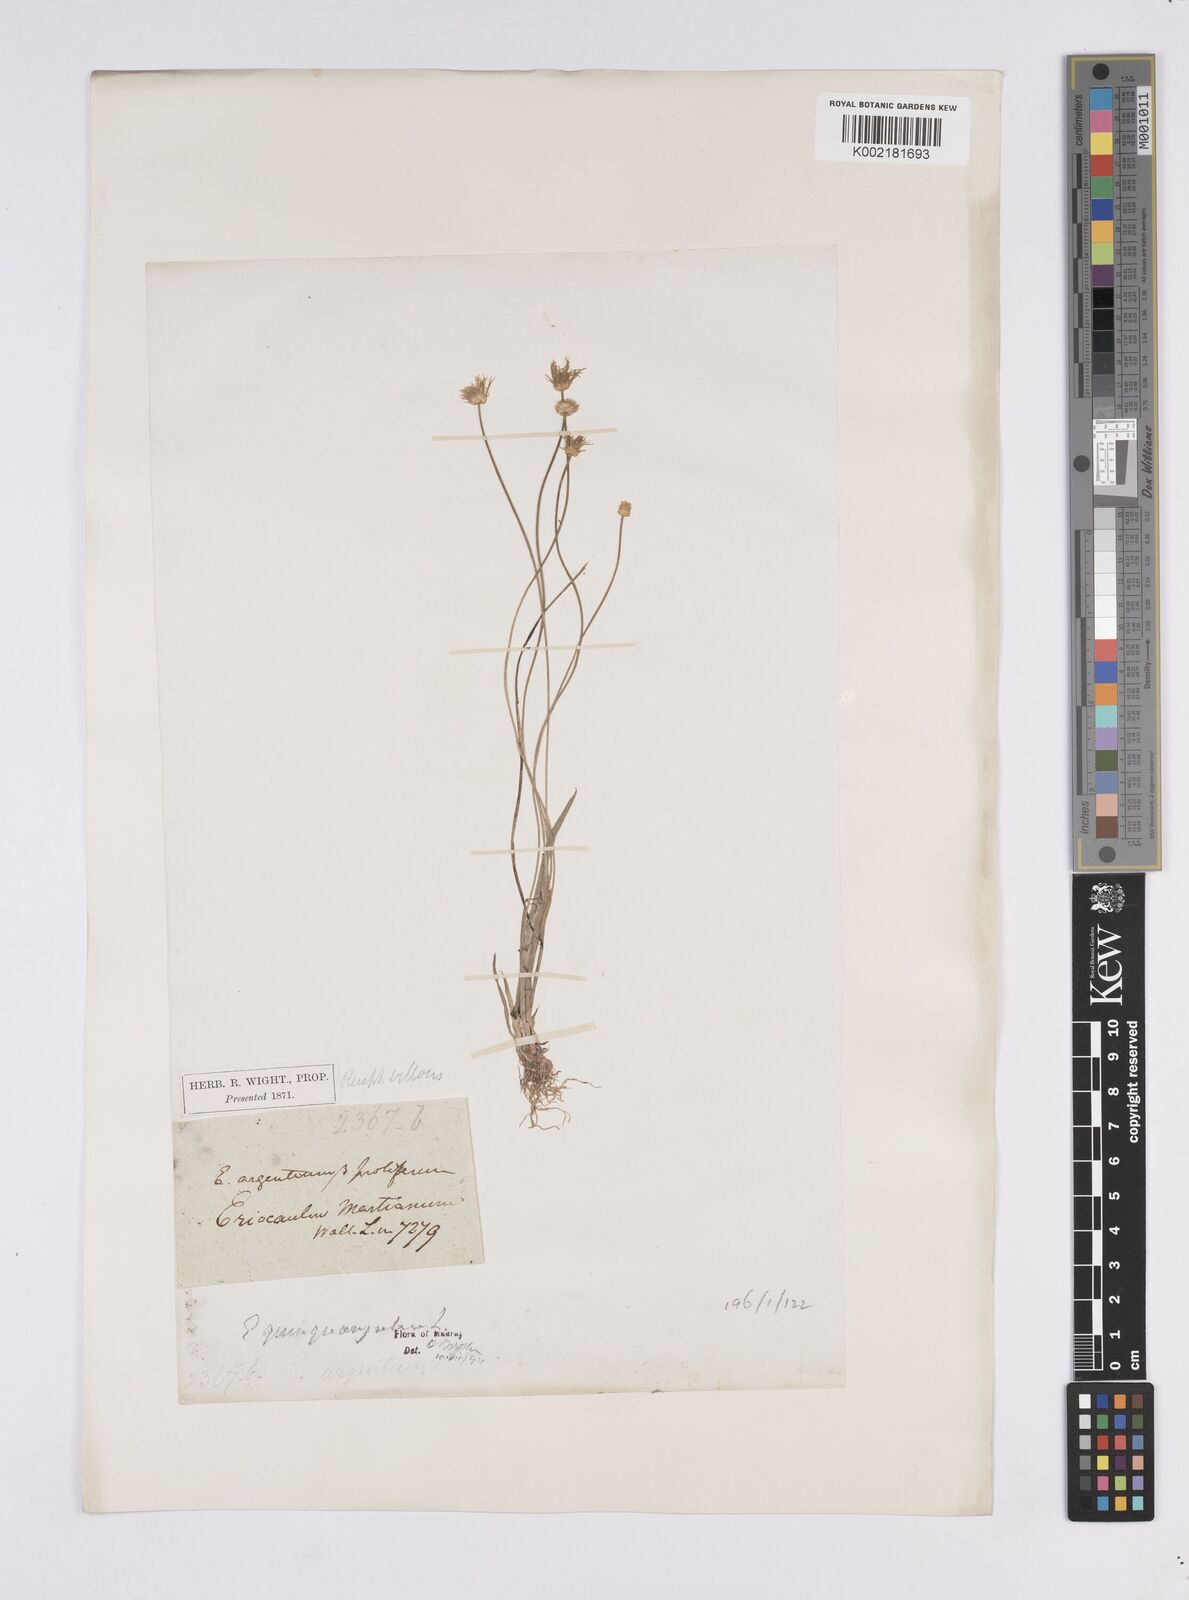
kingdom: Plantae
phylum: Tracheophyta
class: Liliopsida
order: Poales
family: Eriocaulaceae
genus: Eriocaulon
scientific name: Eriocaulon quinquangulare
